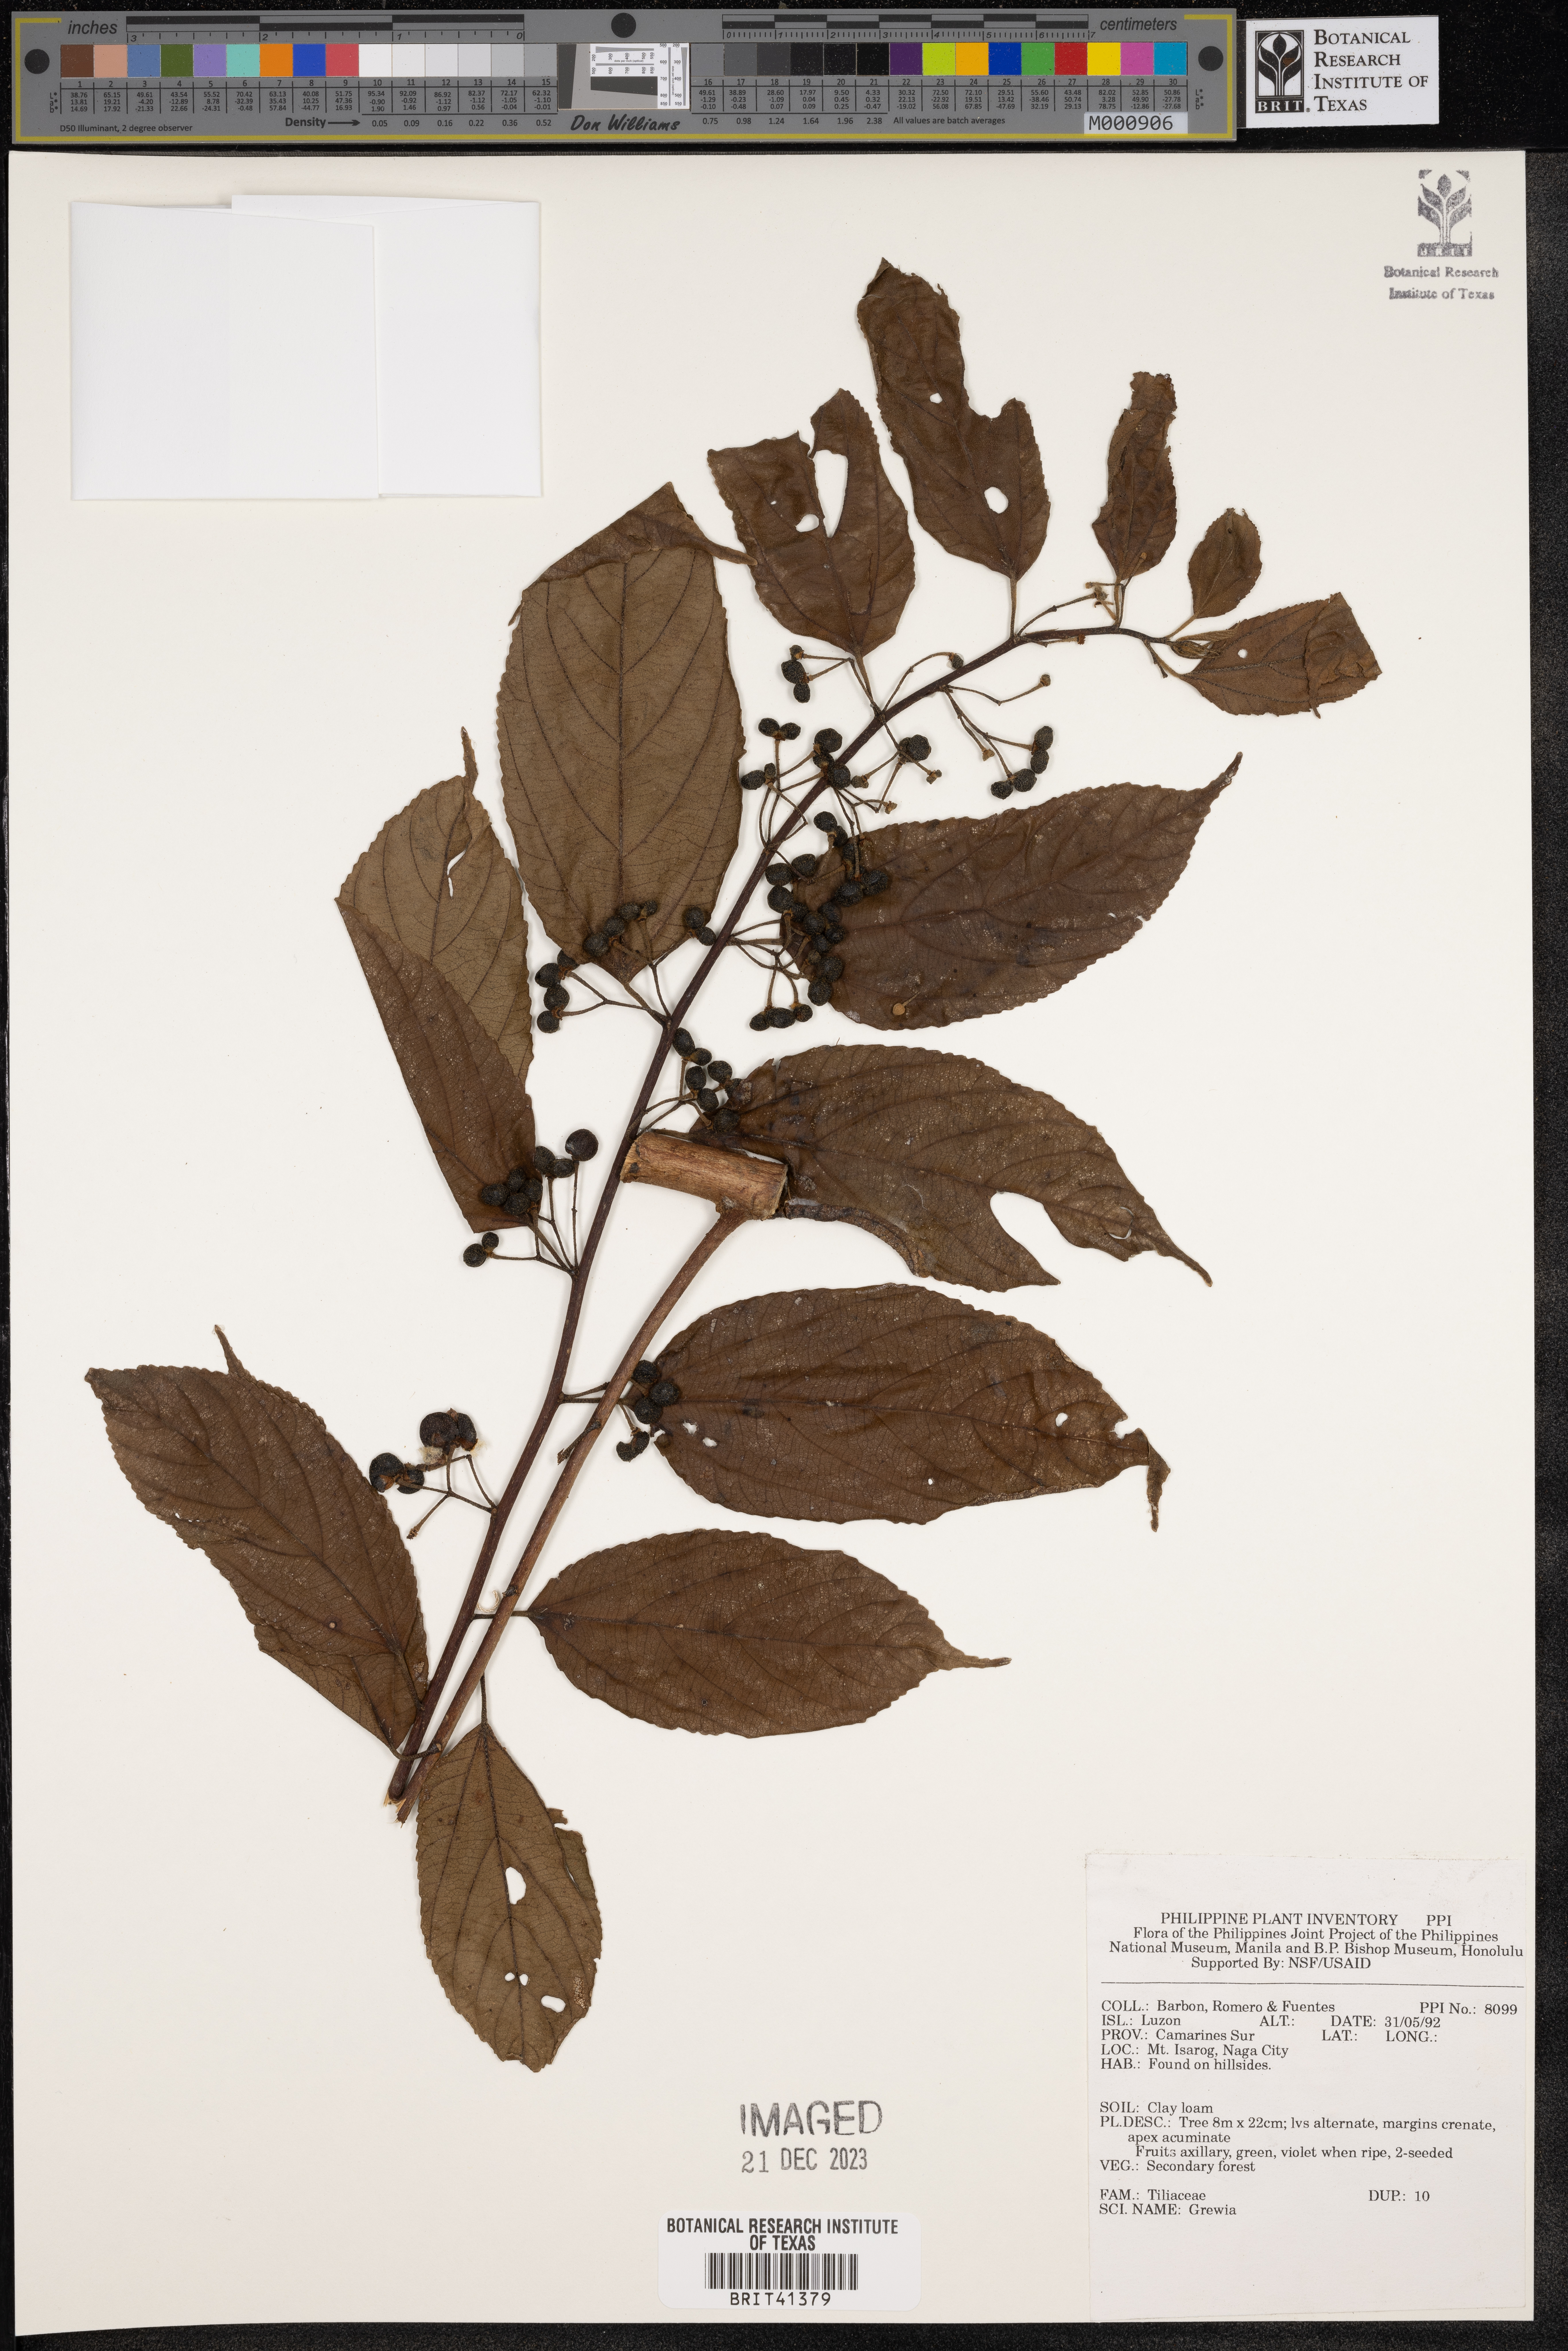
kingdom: Plantae
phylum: Tracheophyta
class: Magnoliopsida
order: Malvales
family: Malvaceae
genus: Grewia
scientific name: Grewia
